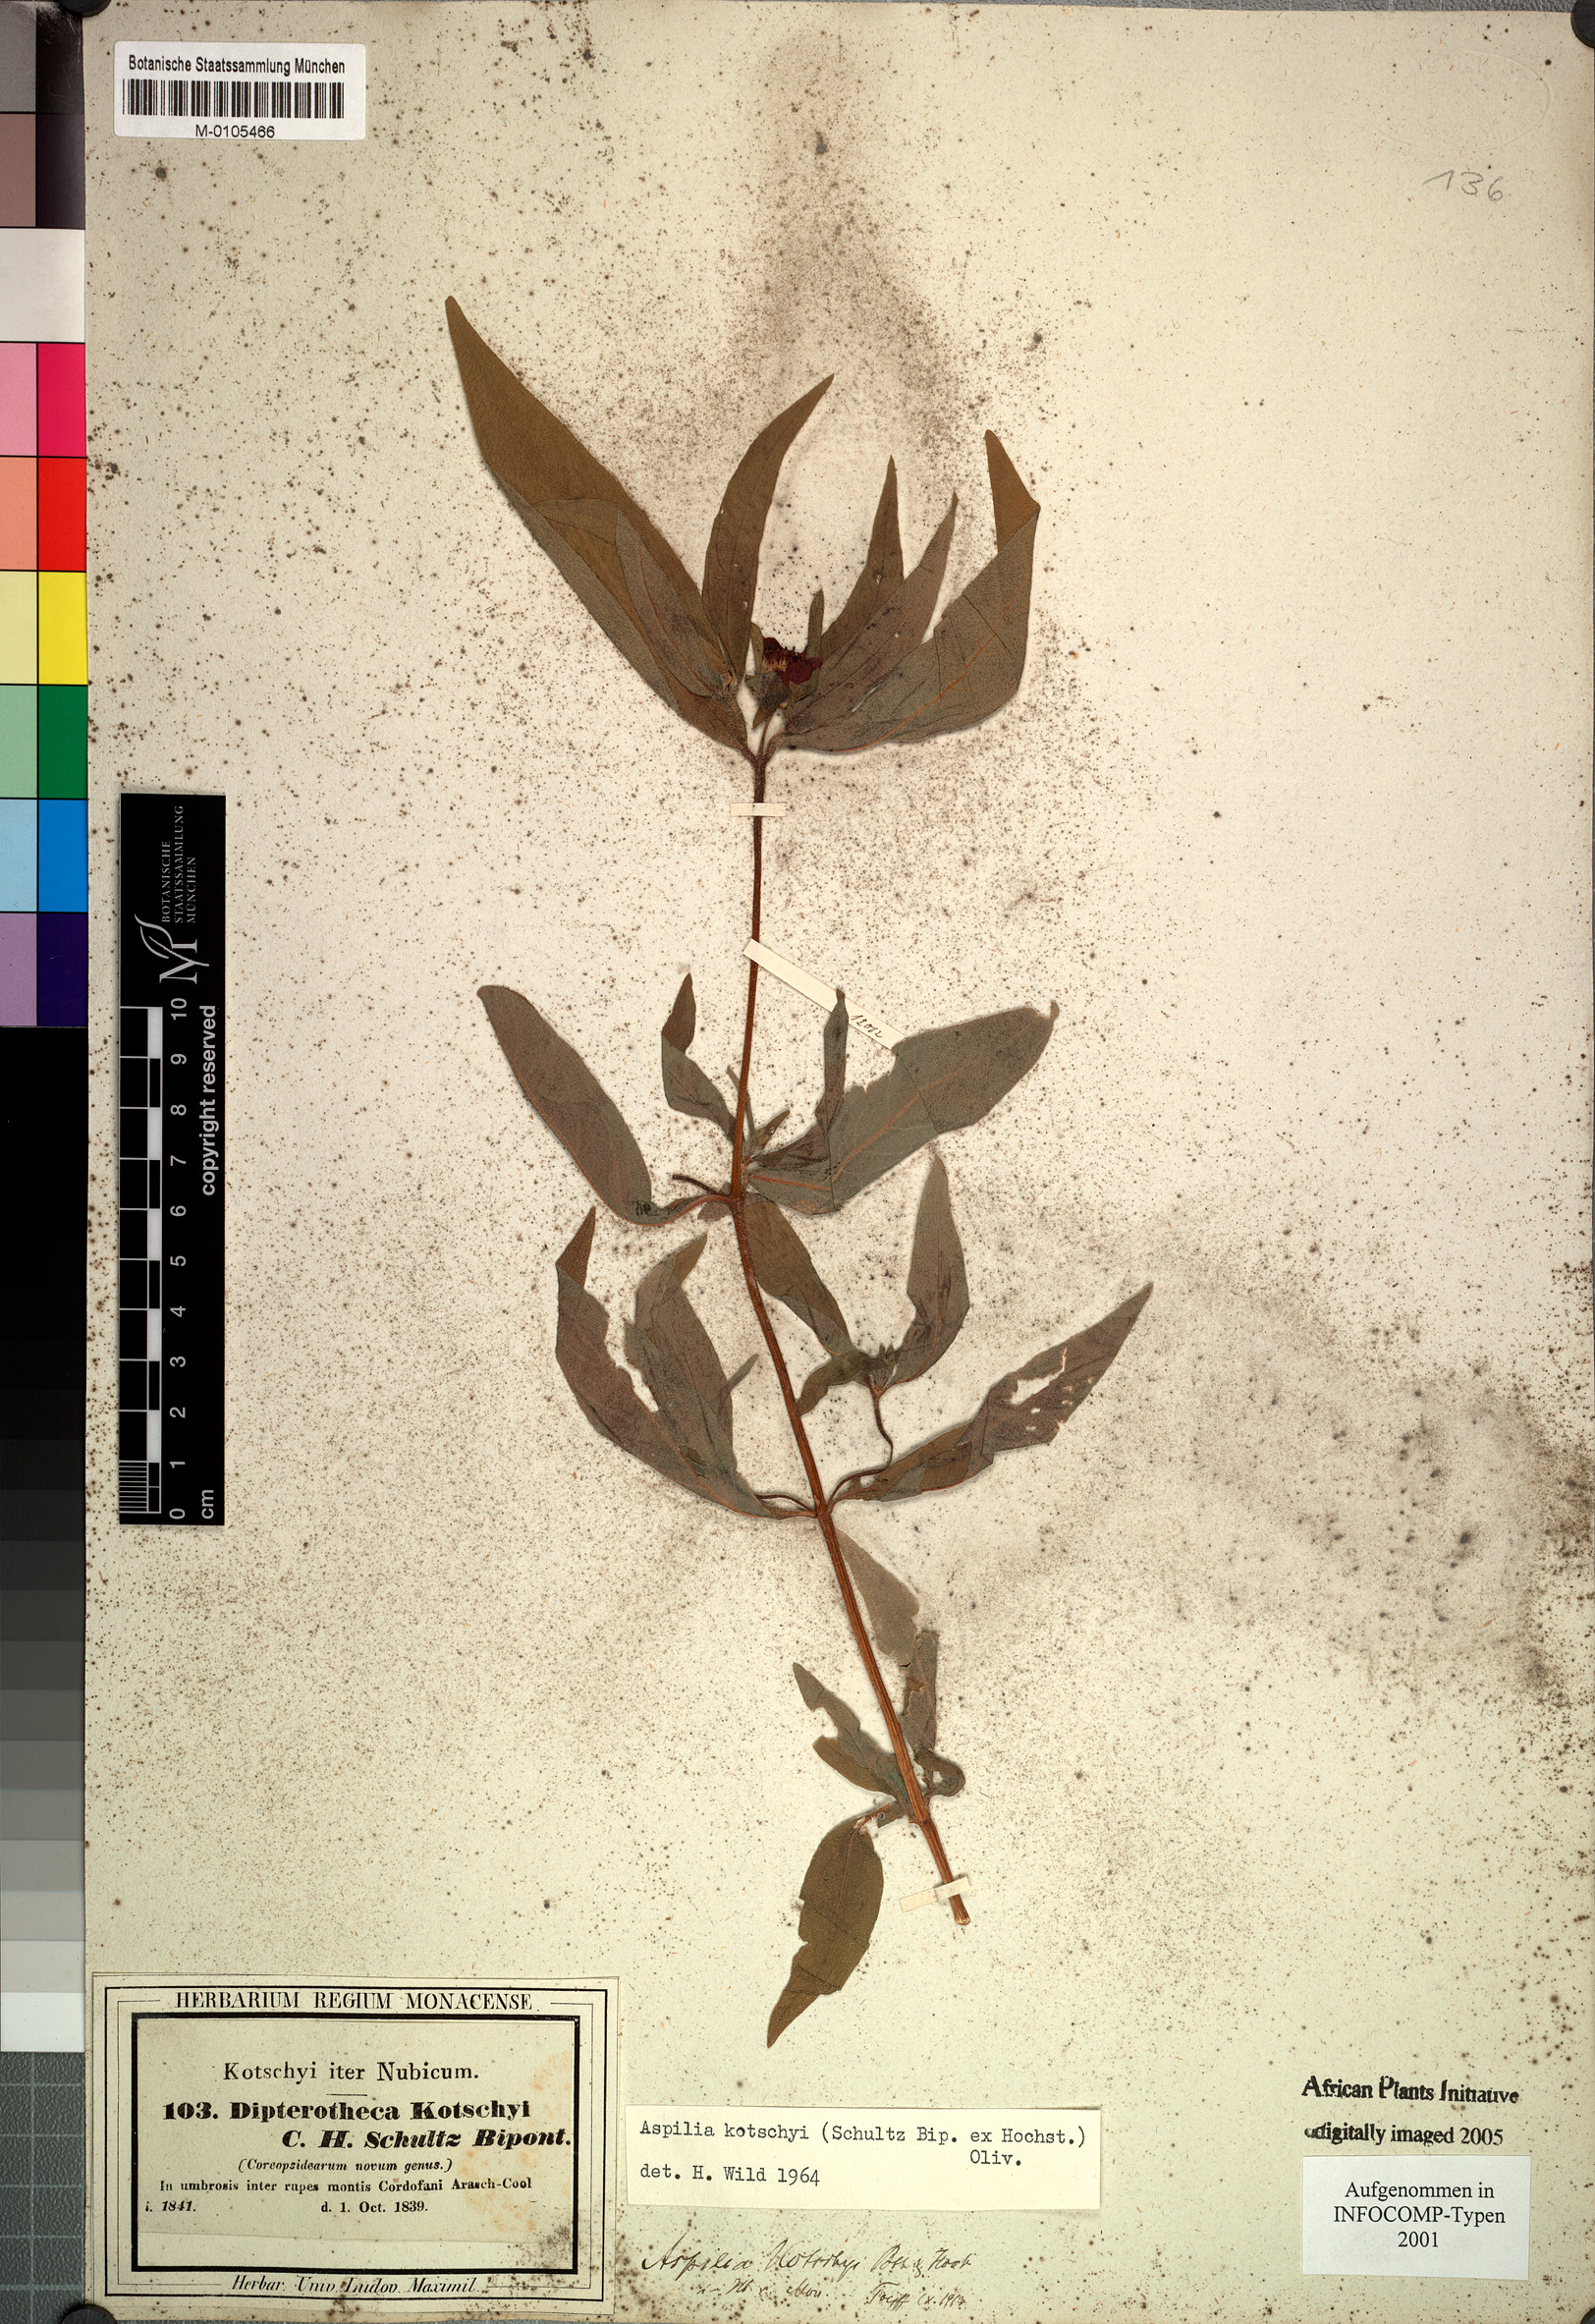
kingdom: Plantae
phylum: Tracheophyta
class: Magnoliopsida
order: Asterales
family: Asteraceae
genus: Aspilia
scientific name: Aspilia kotschyi
